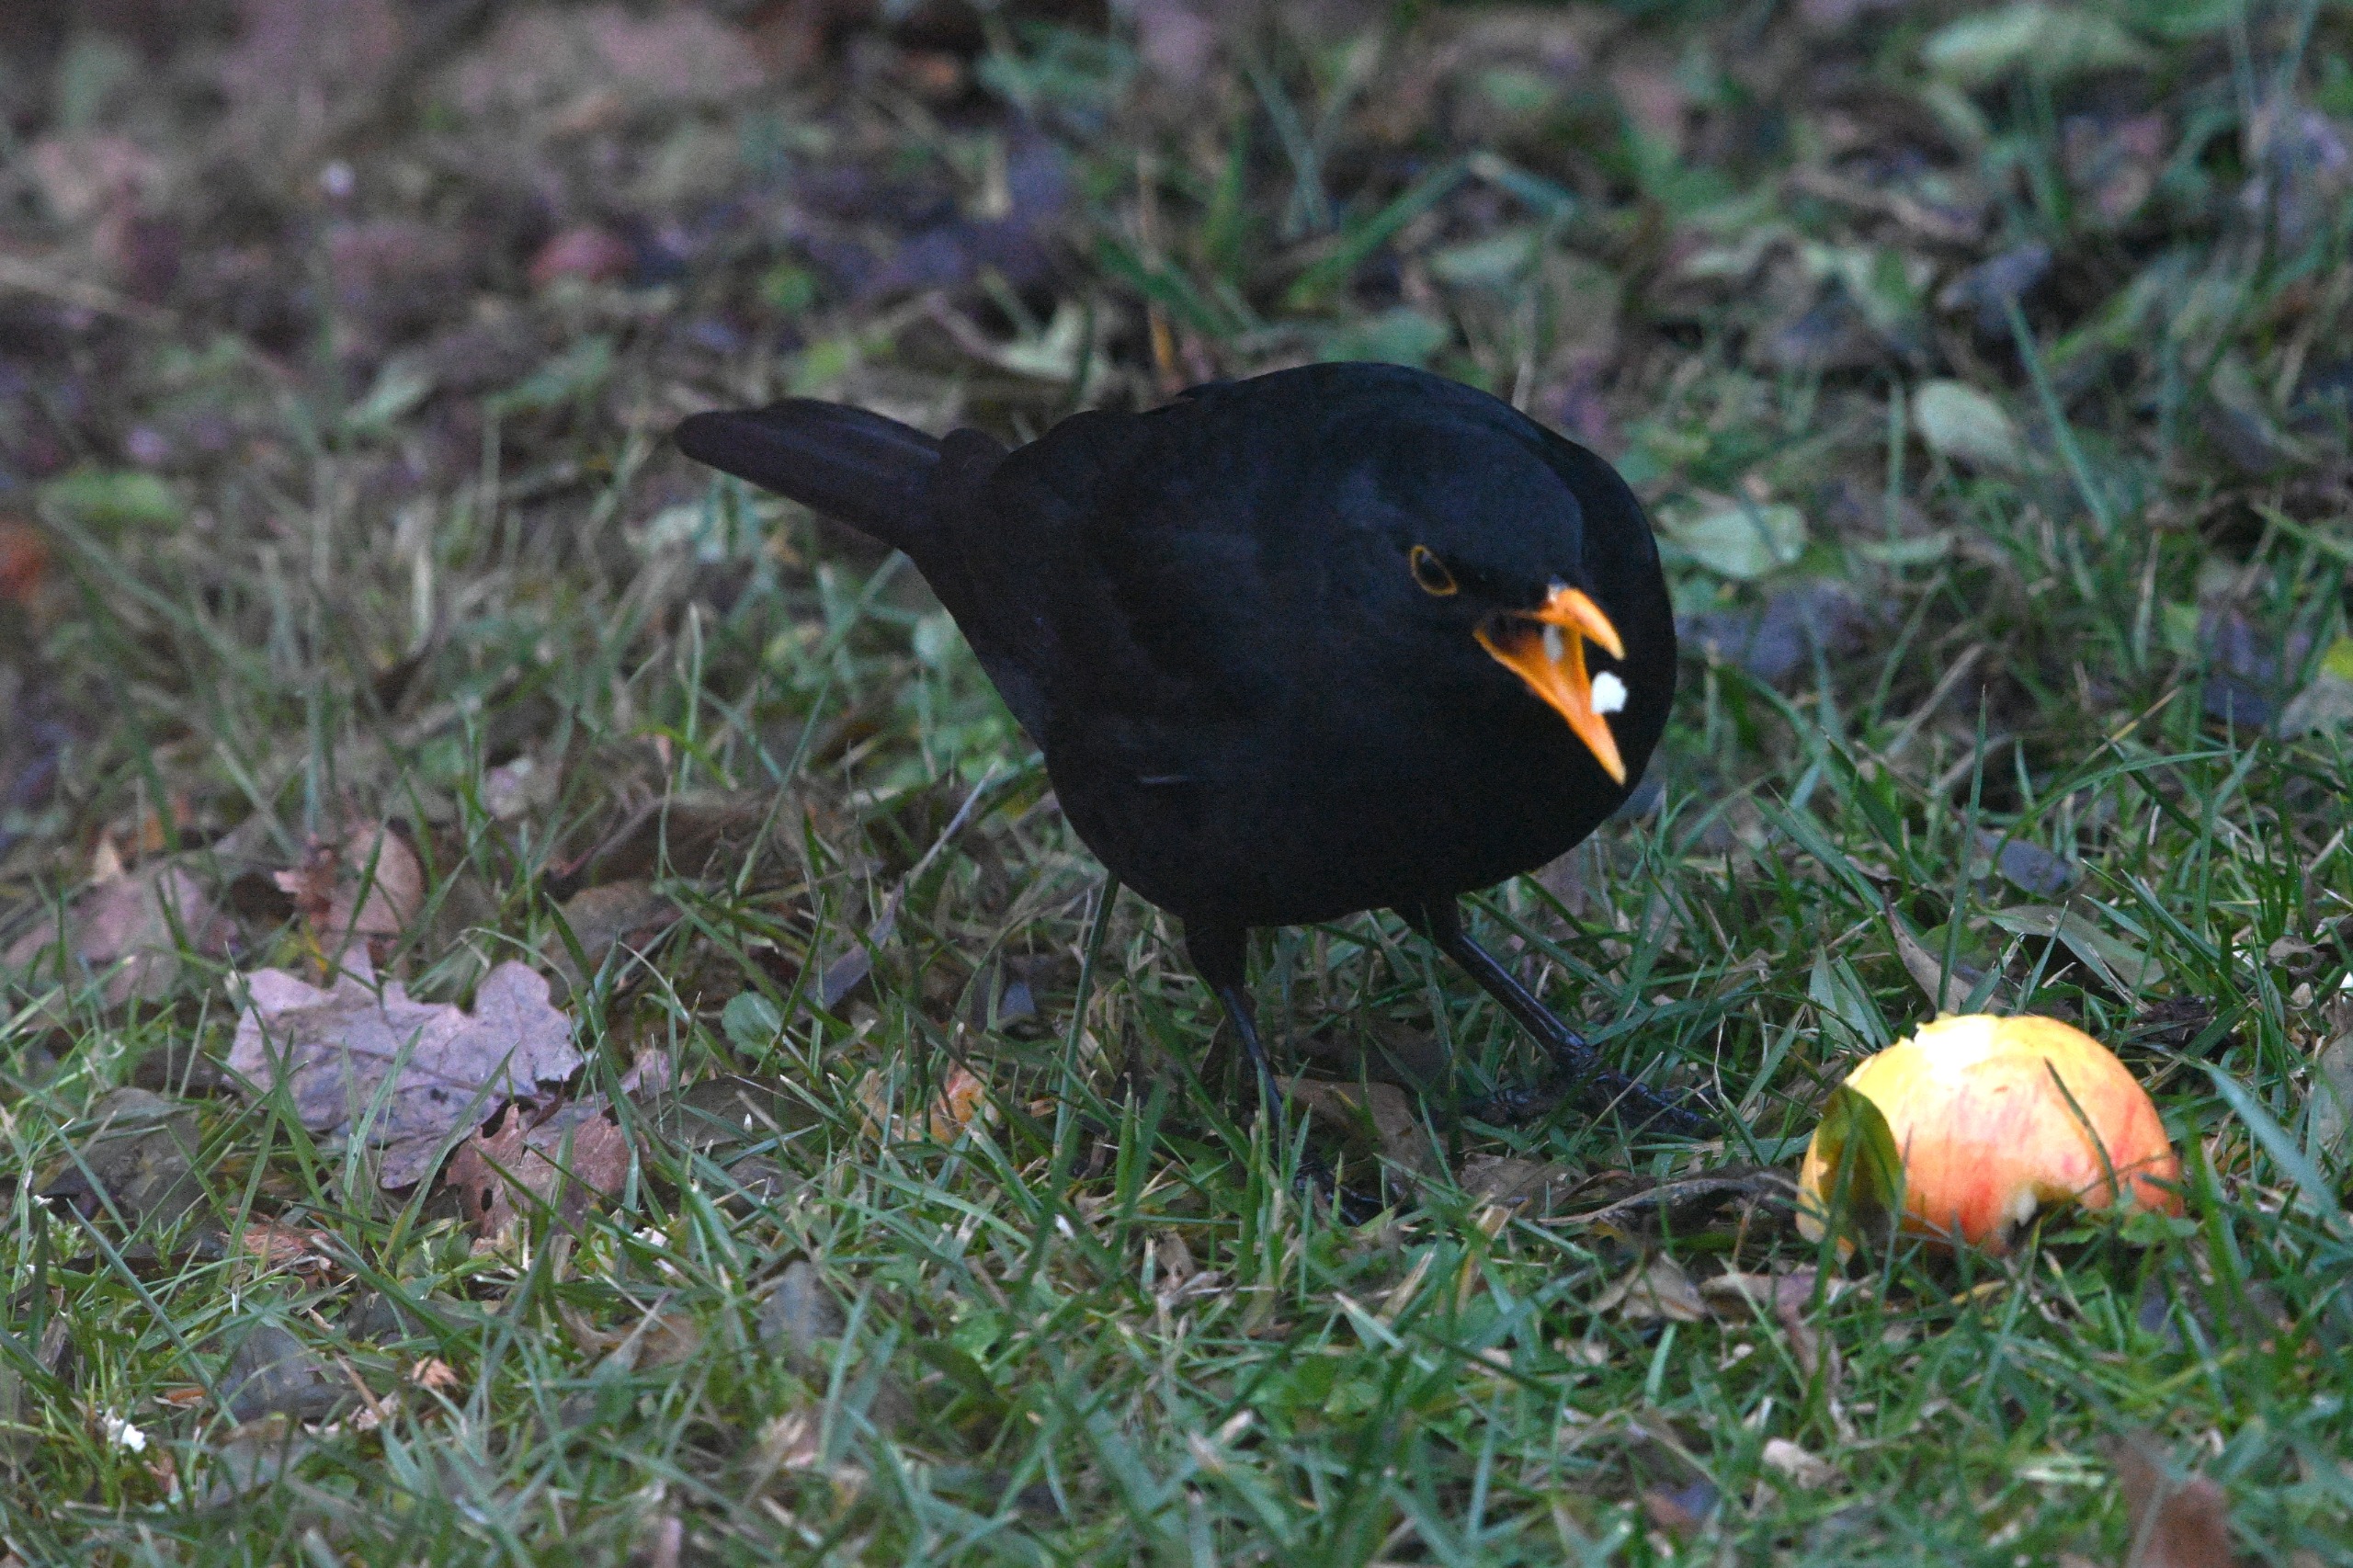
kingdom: Animalia
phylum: Chordata
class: Aves
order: Passeriformes
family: Turdidae
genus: Turdus
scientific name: Turdus merula
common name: Solsort
